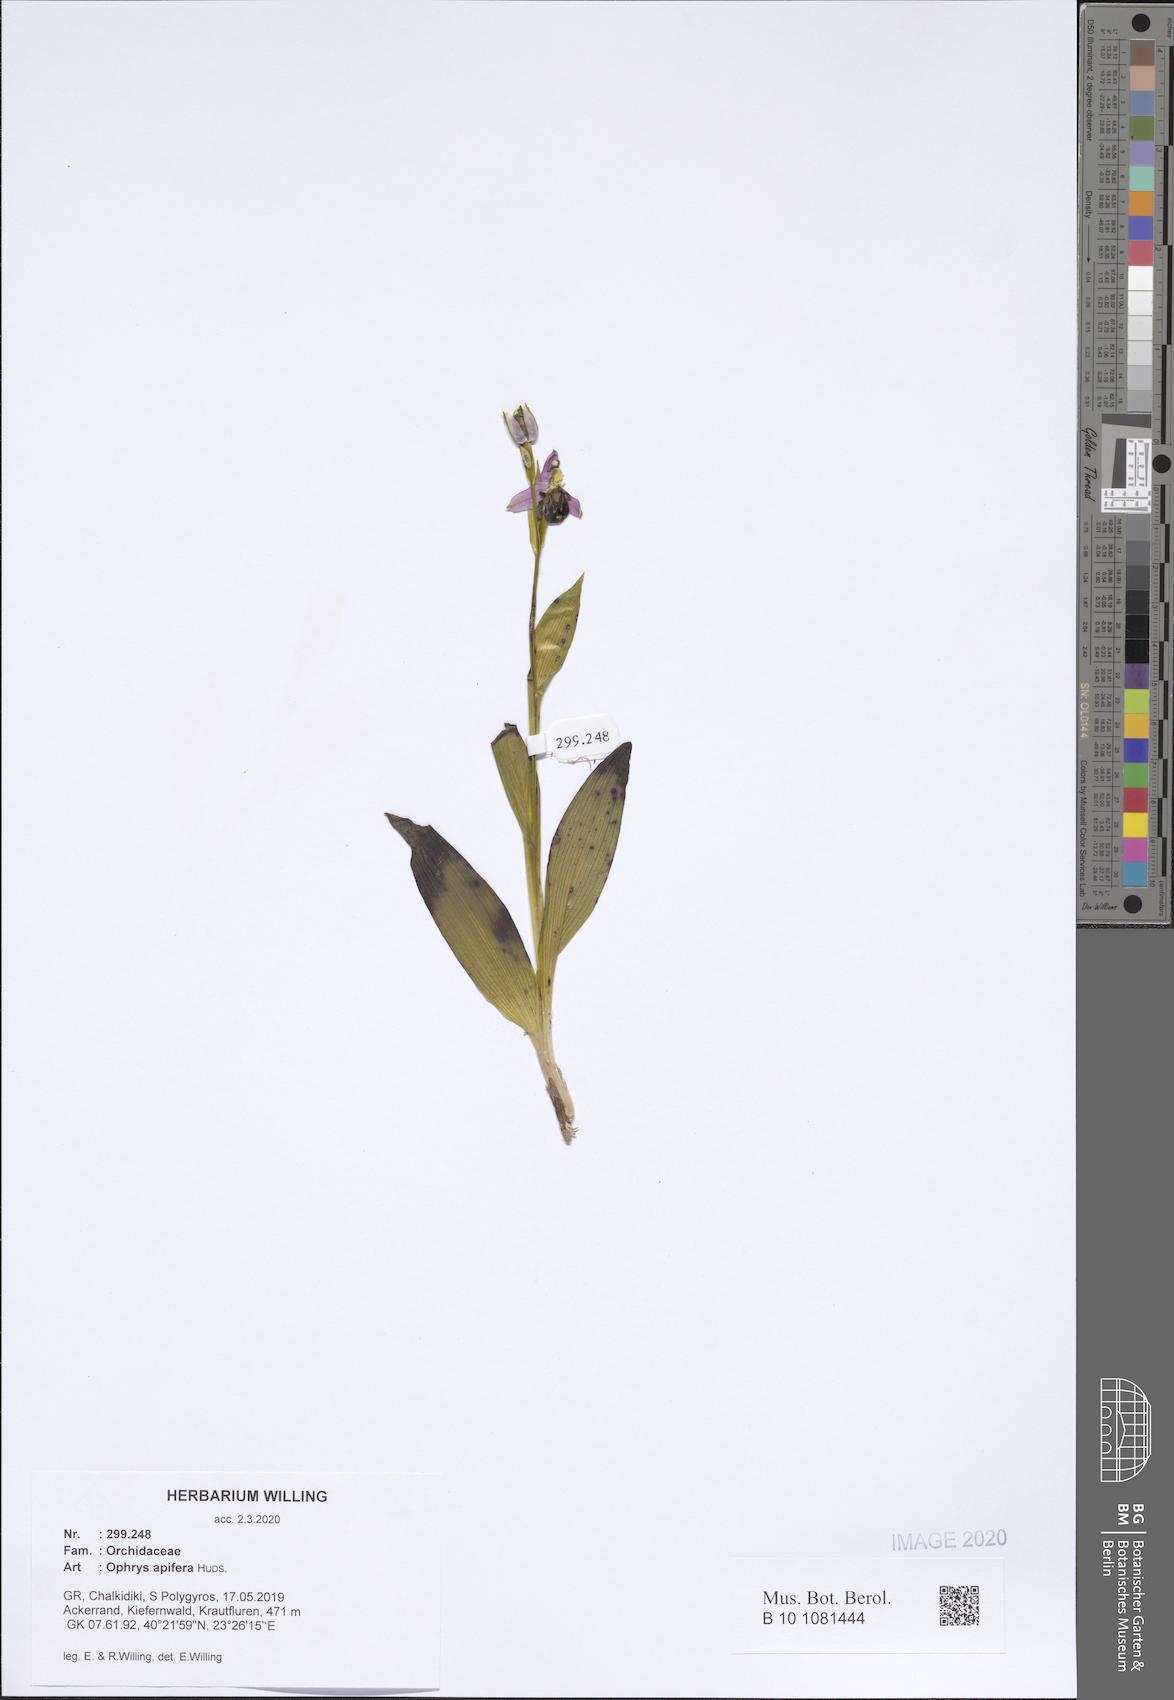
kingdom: Plantae
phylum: Tracheophyta
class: Liliopsida
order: Asparagales
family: Orchidaceae
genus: Ophrys
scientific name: Ophrys apifera
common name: Bee orchid
